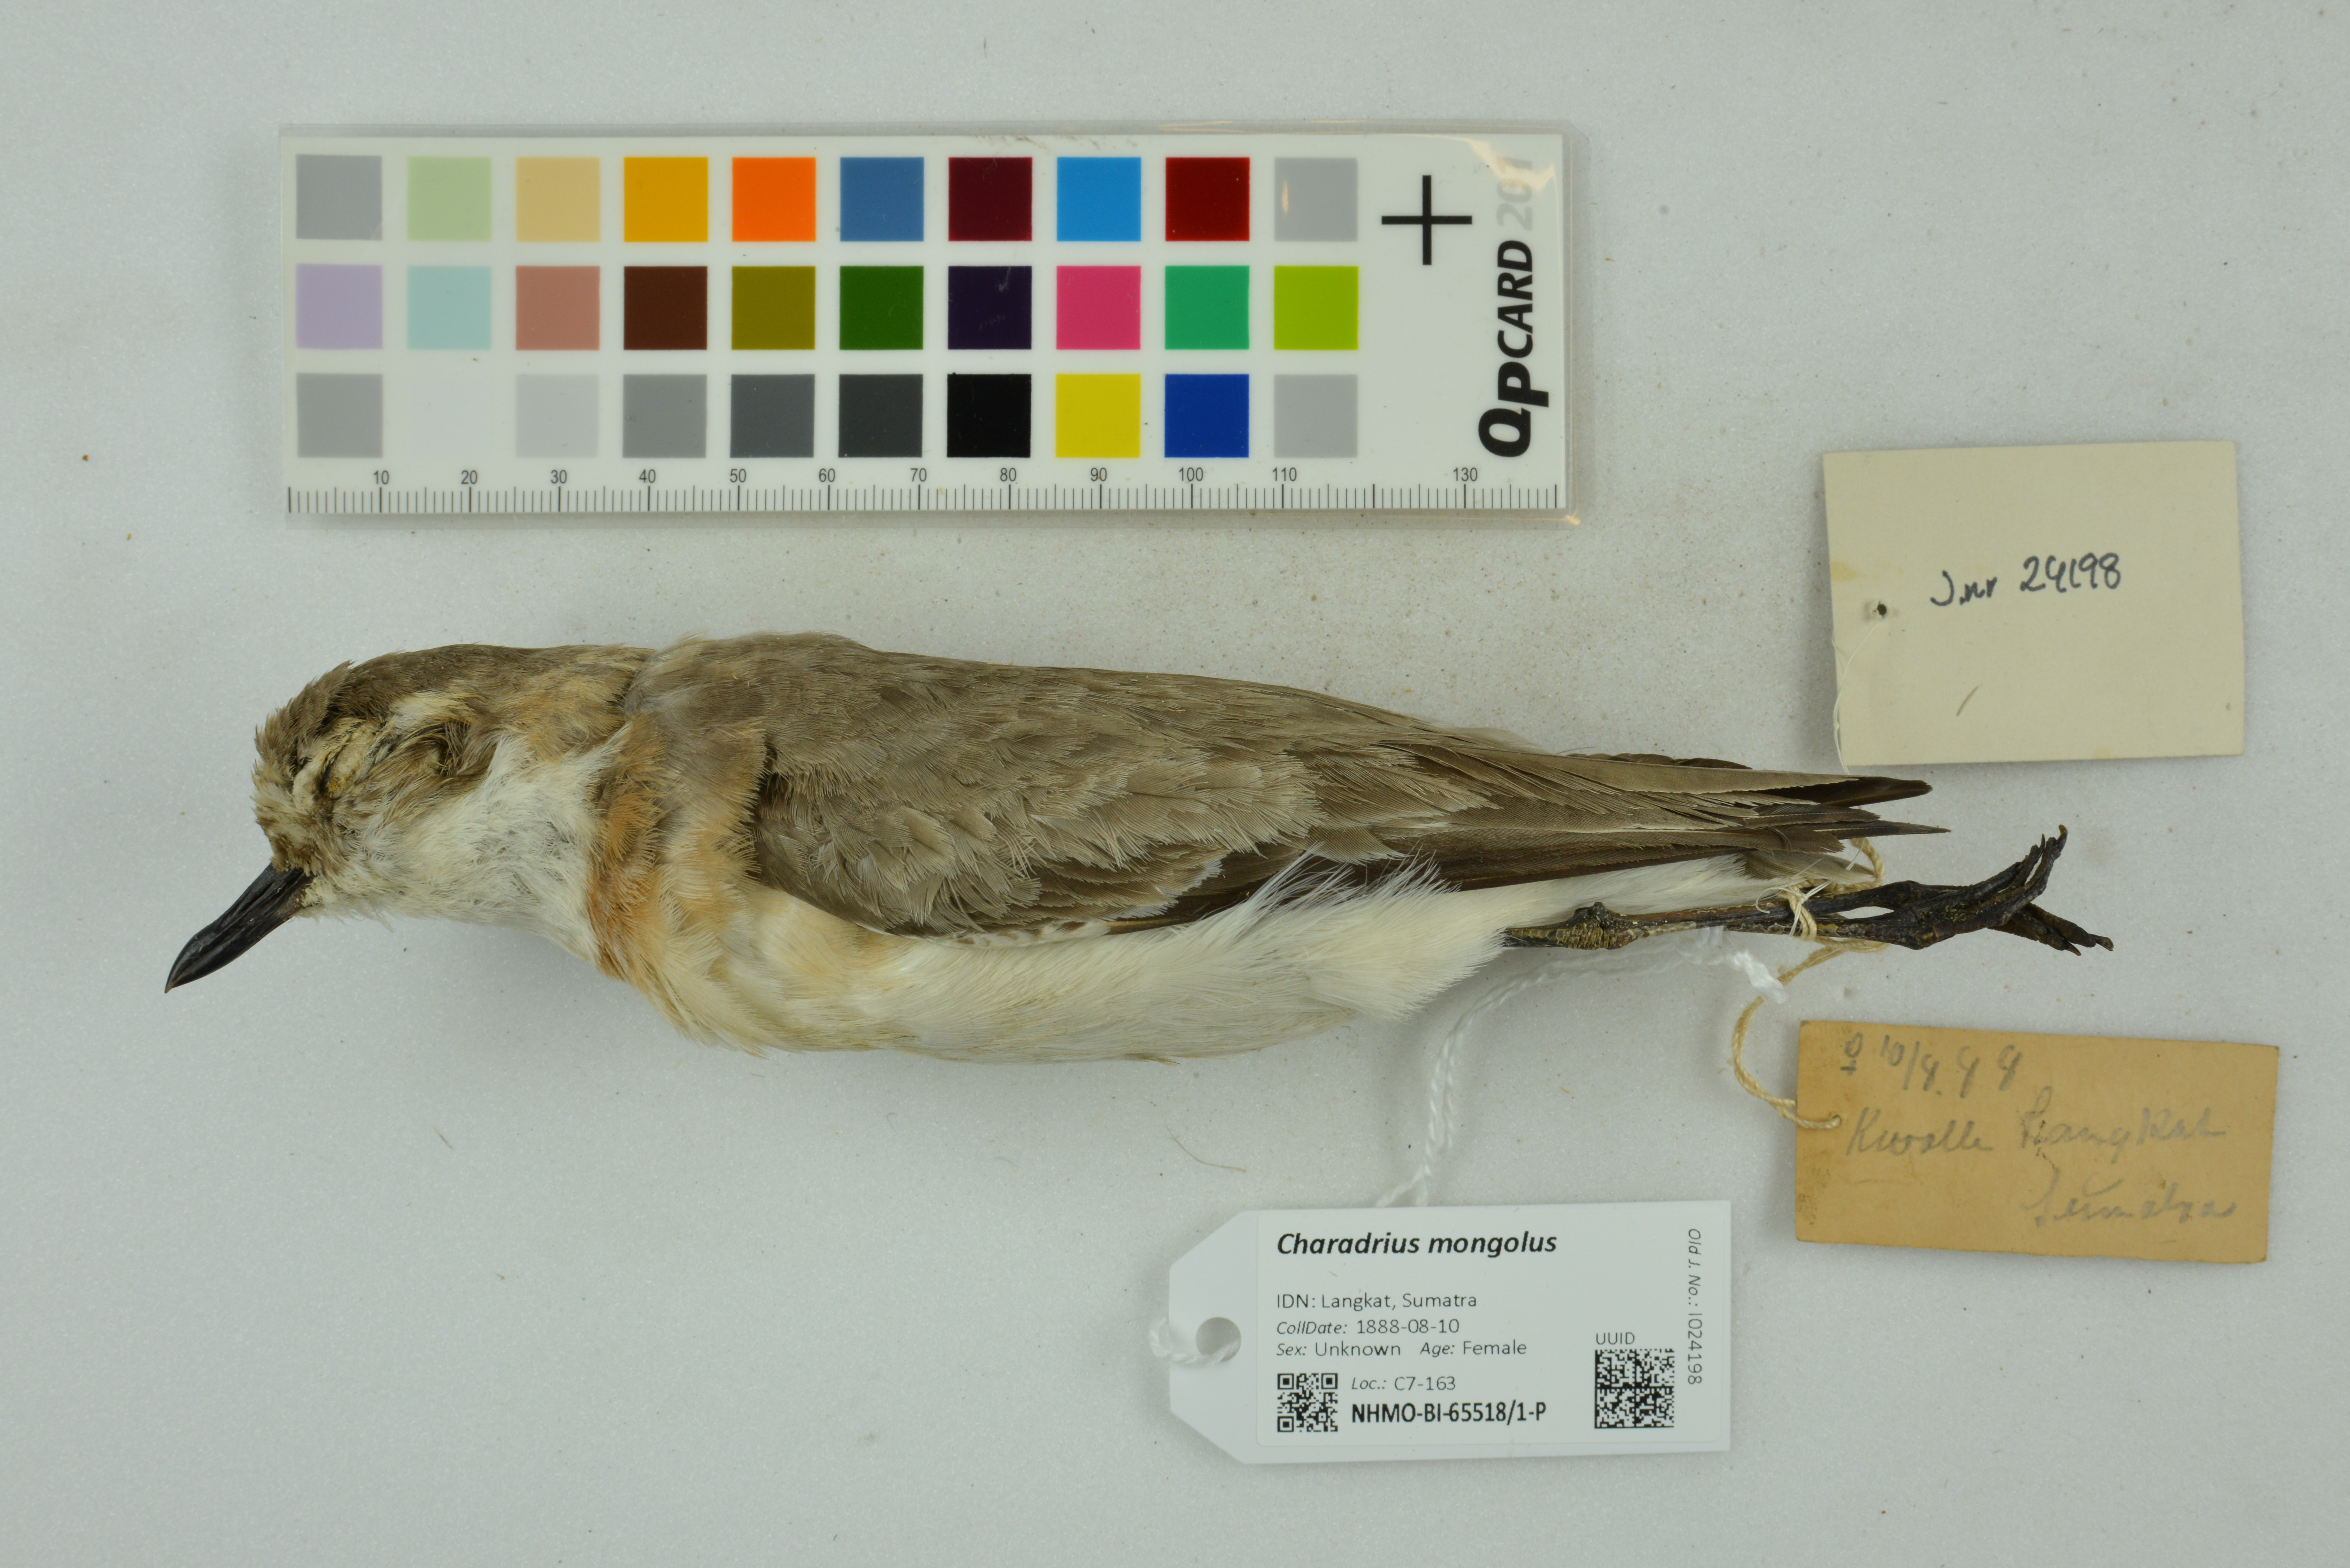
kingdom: Animalia
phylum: Chordata
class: Aves
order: Charadriiformes
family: Charadriidae
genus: Charadrius
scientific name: Charadrius mongolus
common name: Lesser sand-plover
